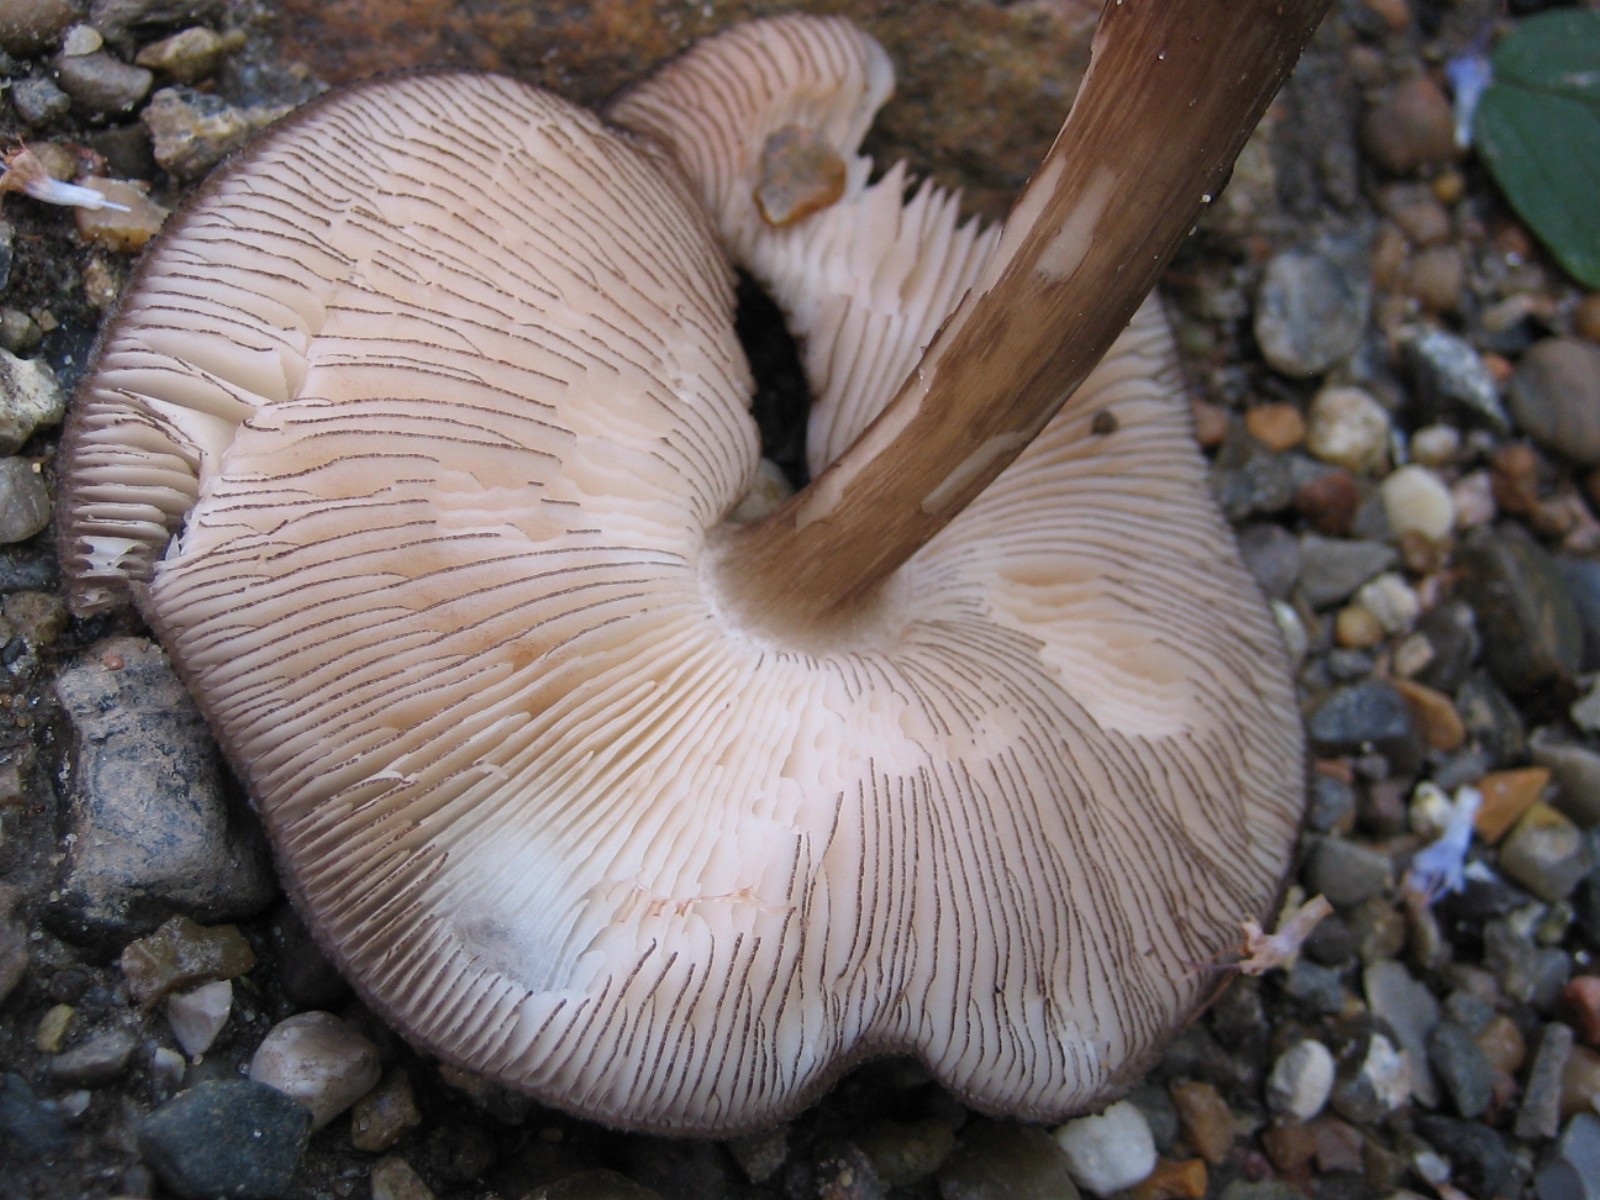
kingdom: Fungi
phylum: Basidiomycota
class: Agaricomycetes
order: Agaricales
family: Pluteaceae
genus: Pluteus
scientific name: Pluteus atromarginatus
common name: sortrandet skærmhat
